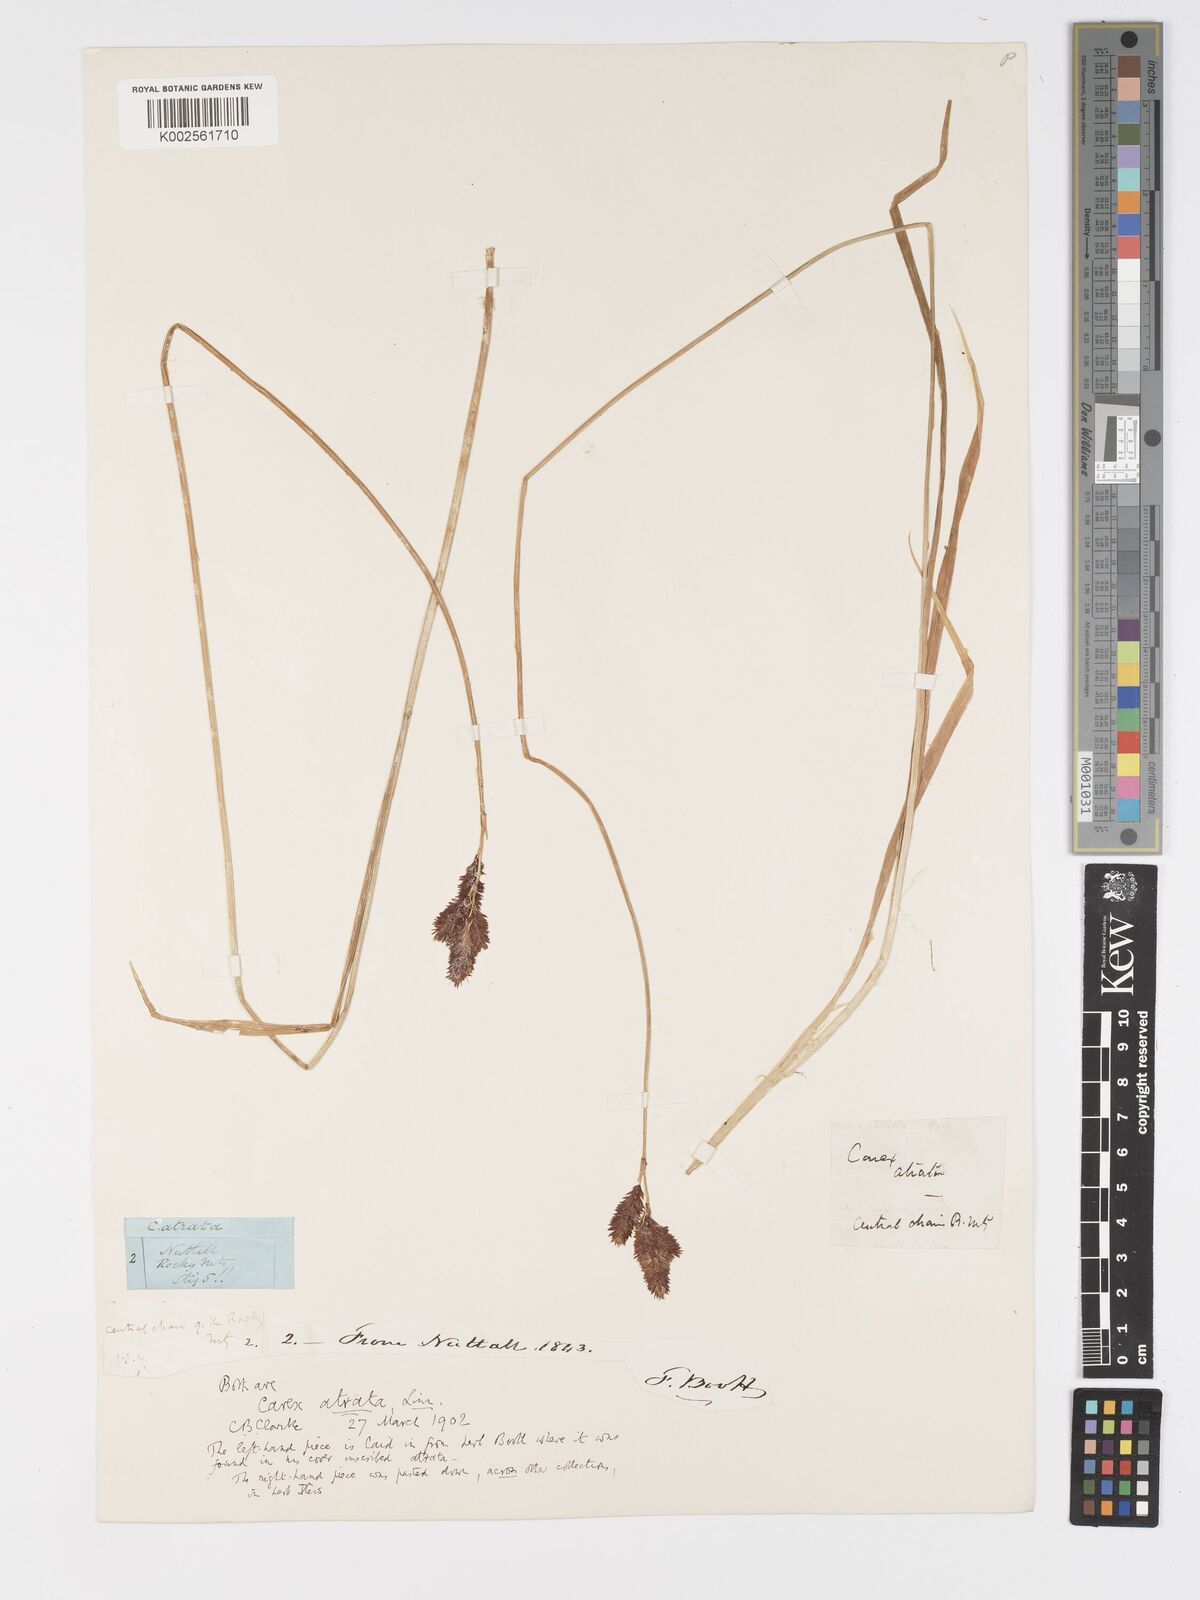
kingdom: Plantae
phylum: Tracheophyta
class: Liliopsida
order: Poales
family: Cyperaceae
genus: Carex
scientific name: Carex atrata
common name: Black alpine sedge
